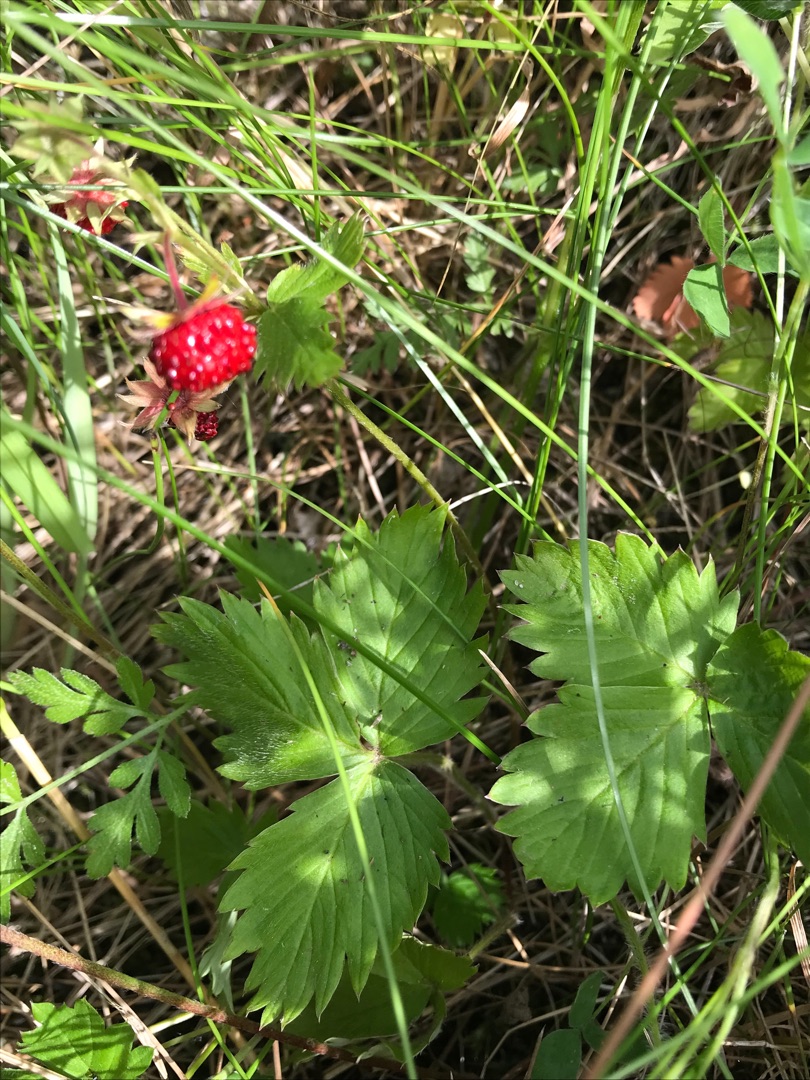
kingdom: Plantae
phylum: Tracheophyta
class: Magnoliopsida
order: Rosales
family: Rosaceae
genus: Fragaria
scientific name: Fragaria vesca
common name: Skov-jordbær
